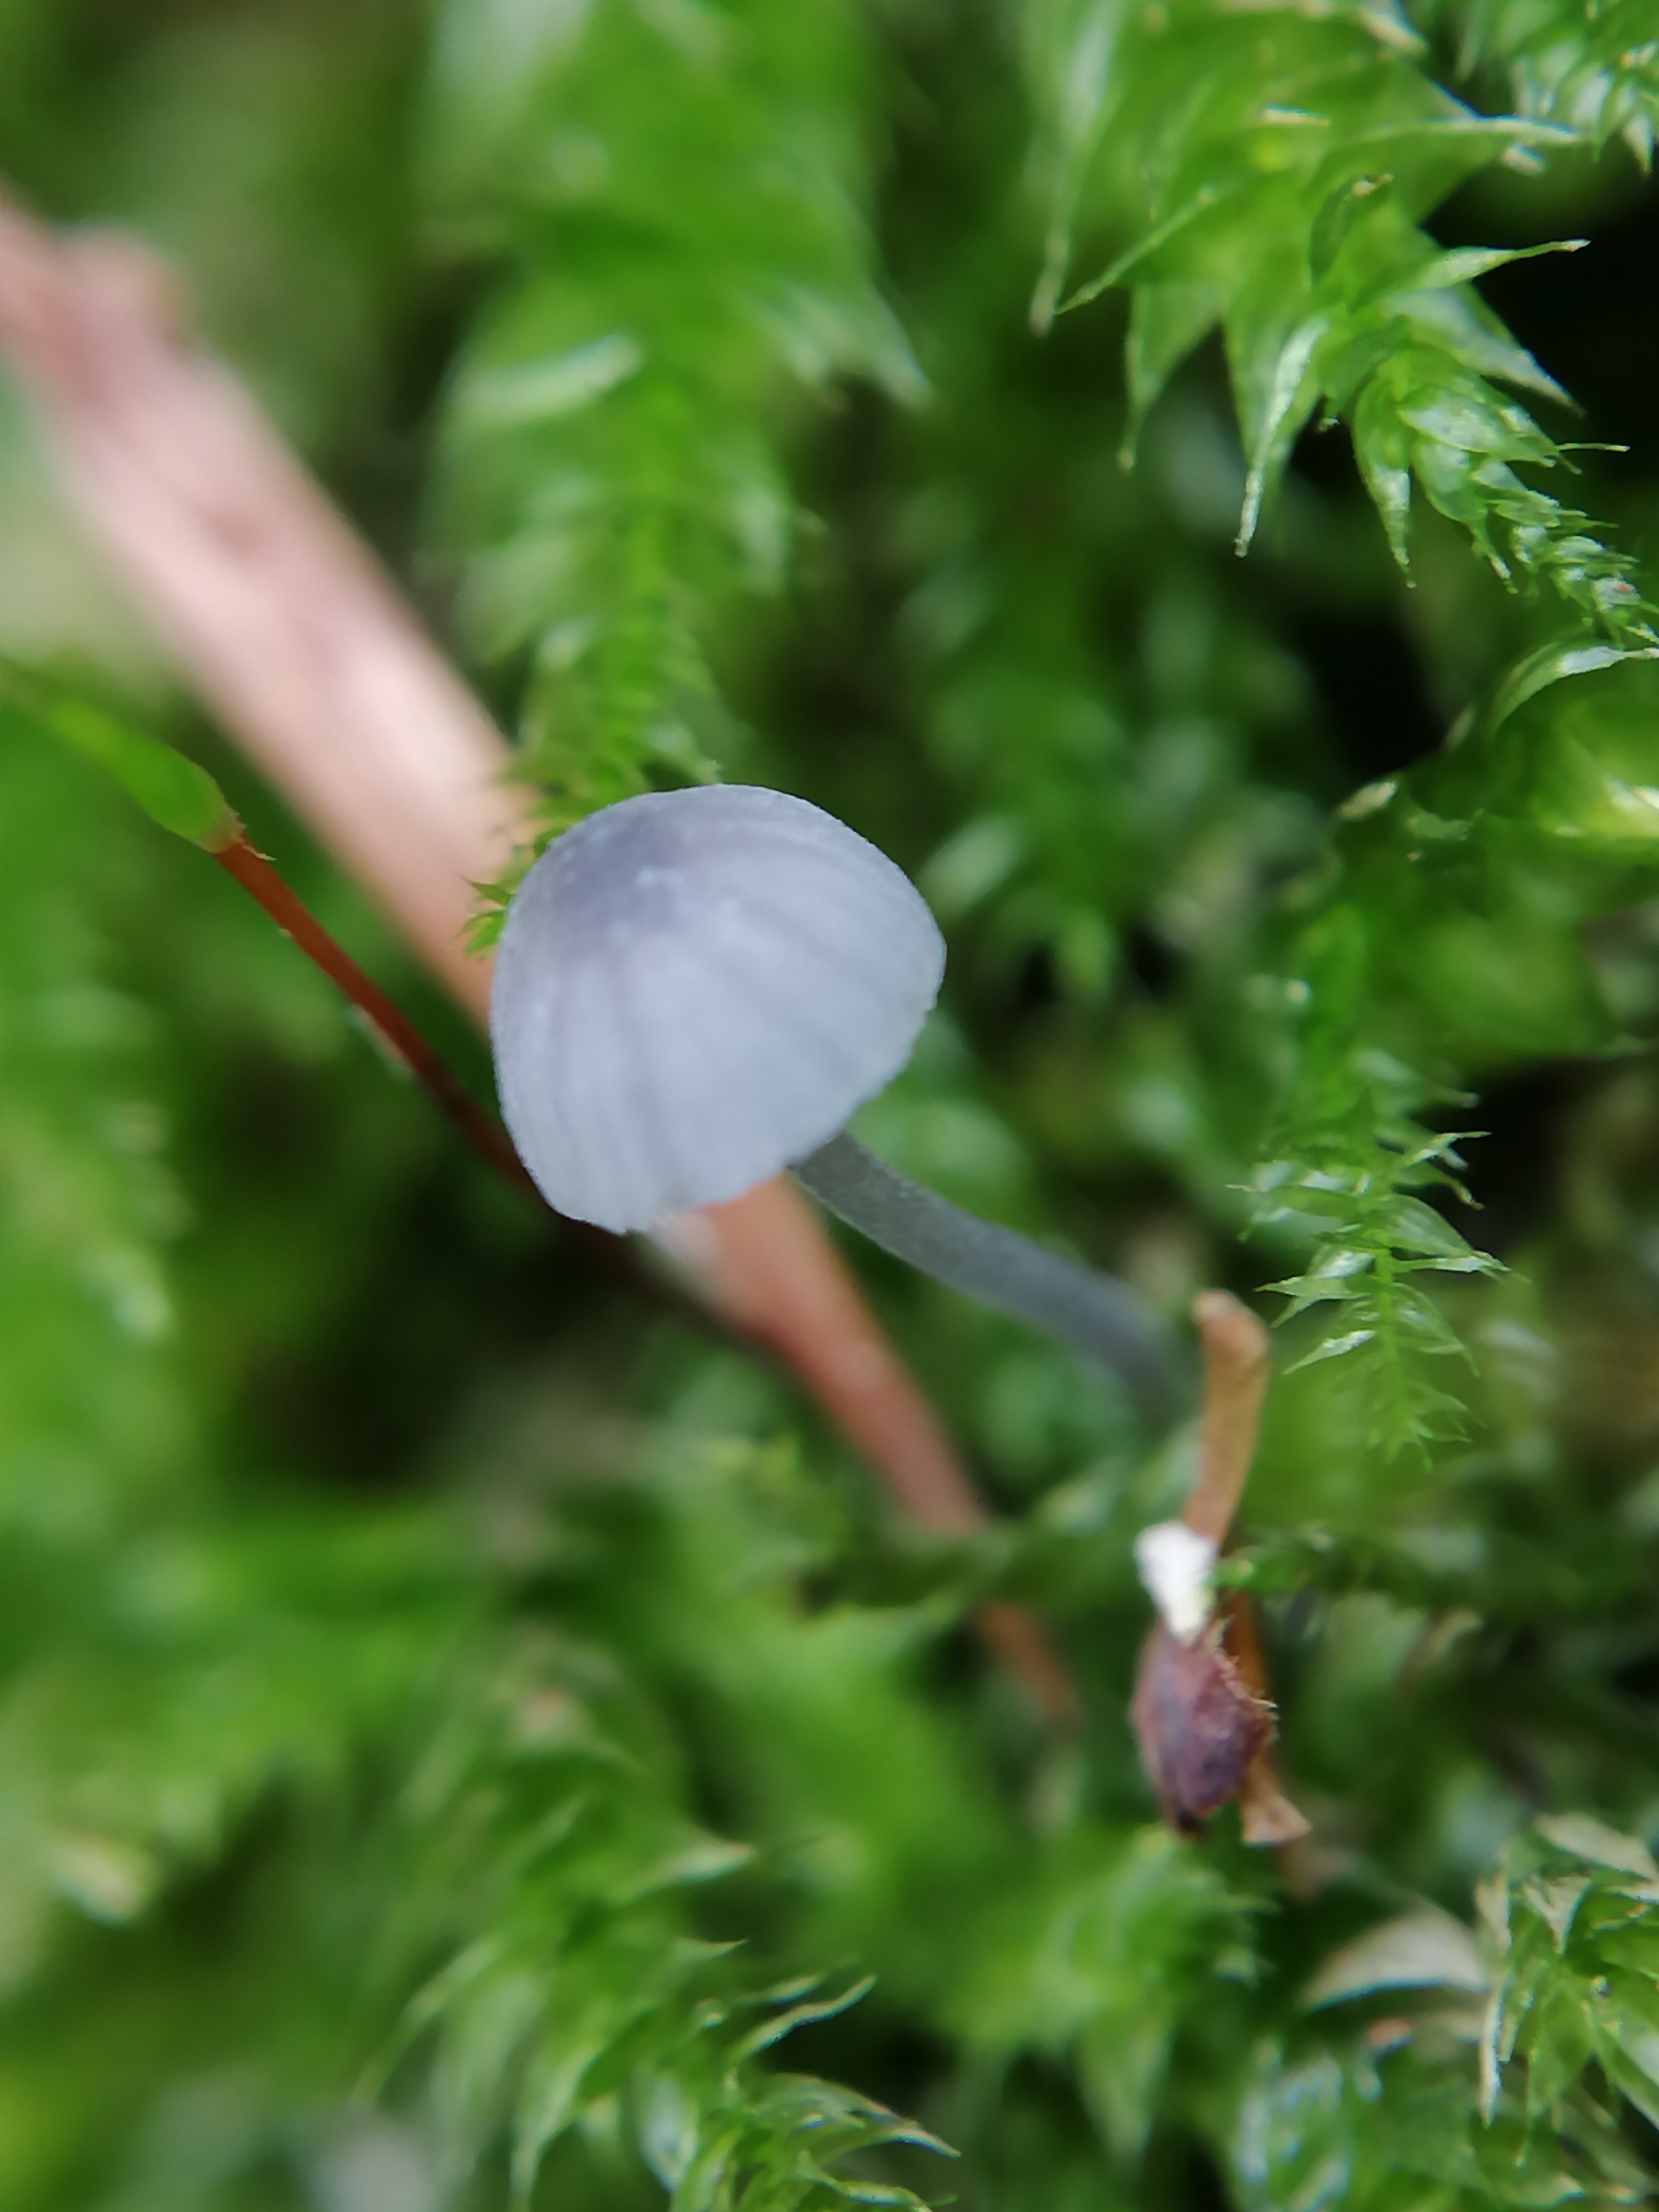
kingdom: Fungi
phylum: Basidiomycota
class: Agaricomycetes
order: Agaricales
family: Mycenaceae
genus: Mycena
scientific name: Mycena pseudocorticola
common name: gråblå bark-huesvamp
